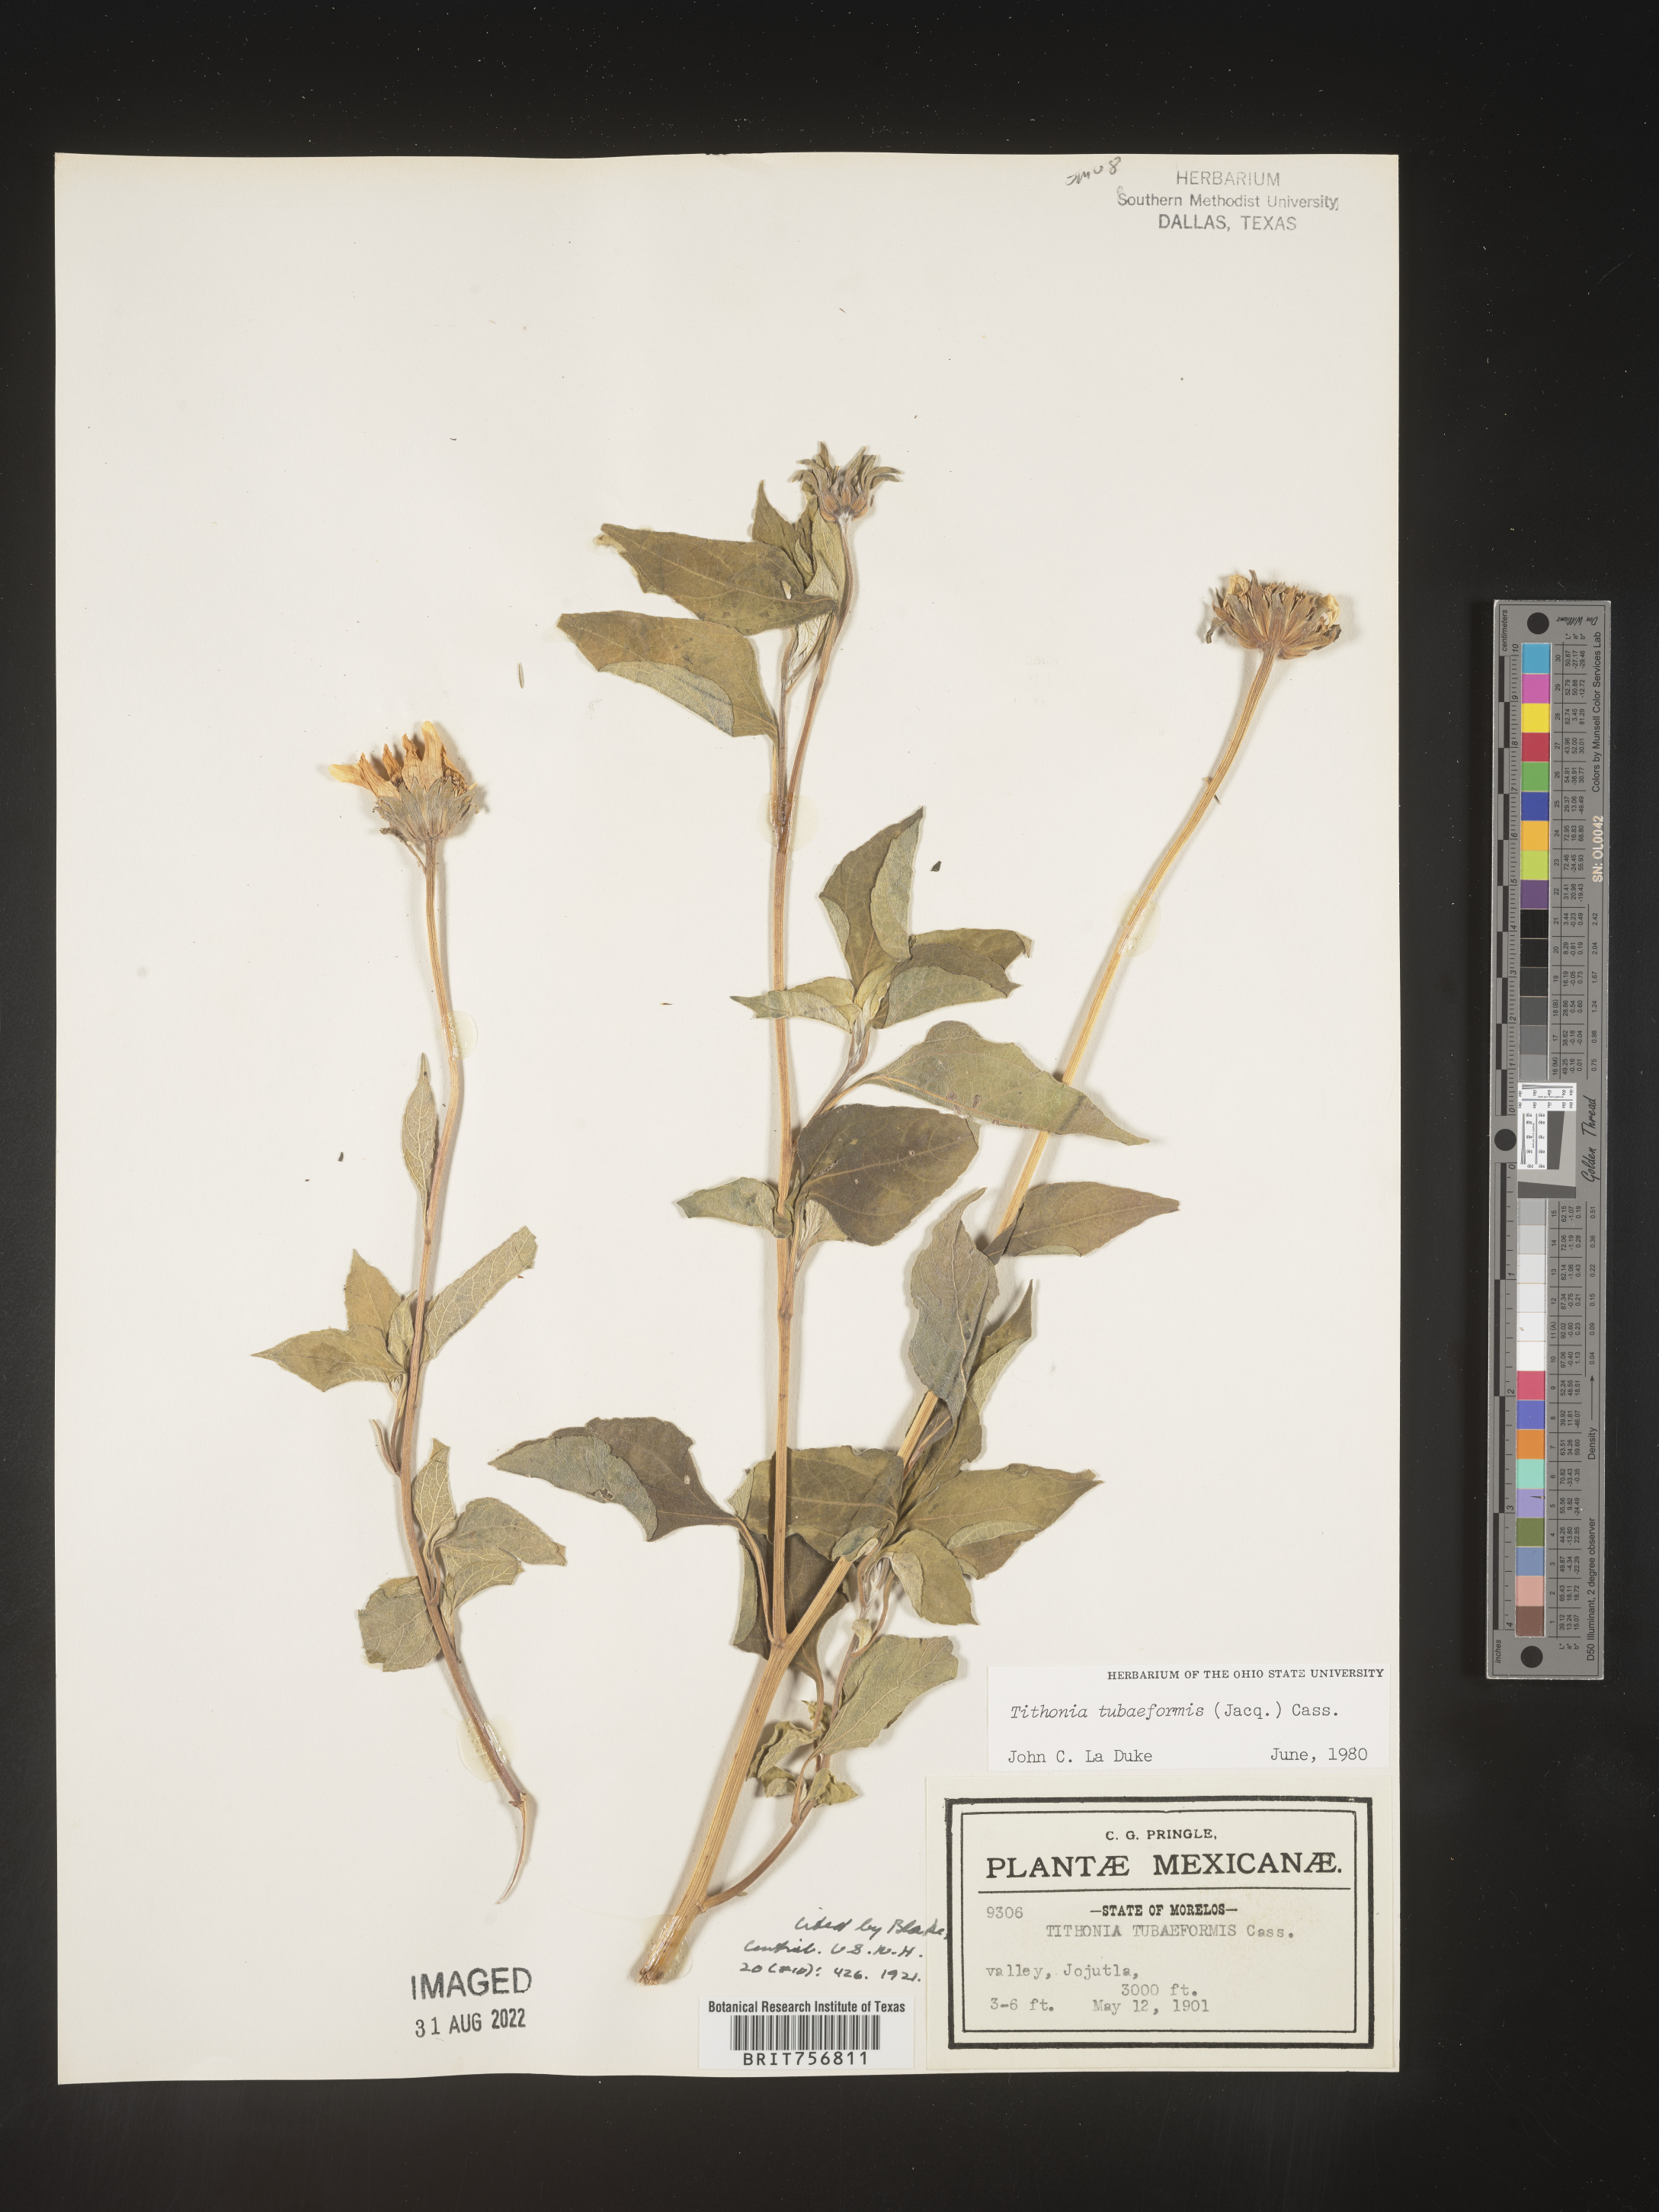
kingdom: Plantae
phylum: Tracheophyta
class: Magnoliopsida
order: Asterales
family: Asteraceae
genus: Tithonia
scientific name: Tithonia
